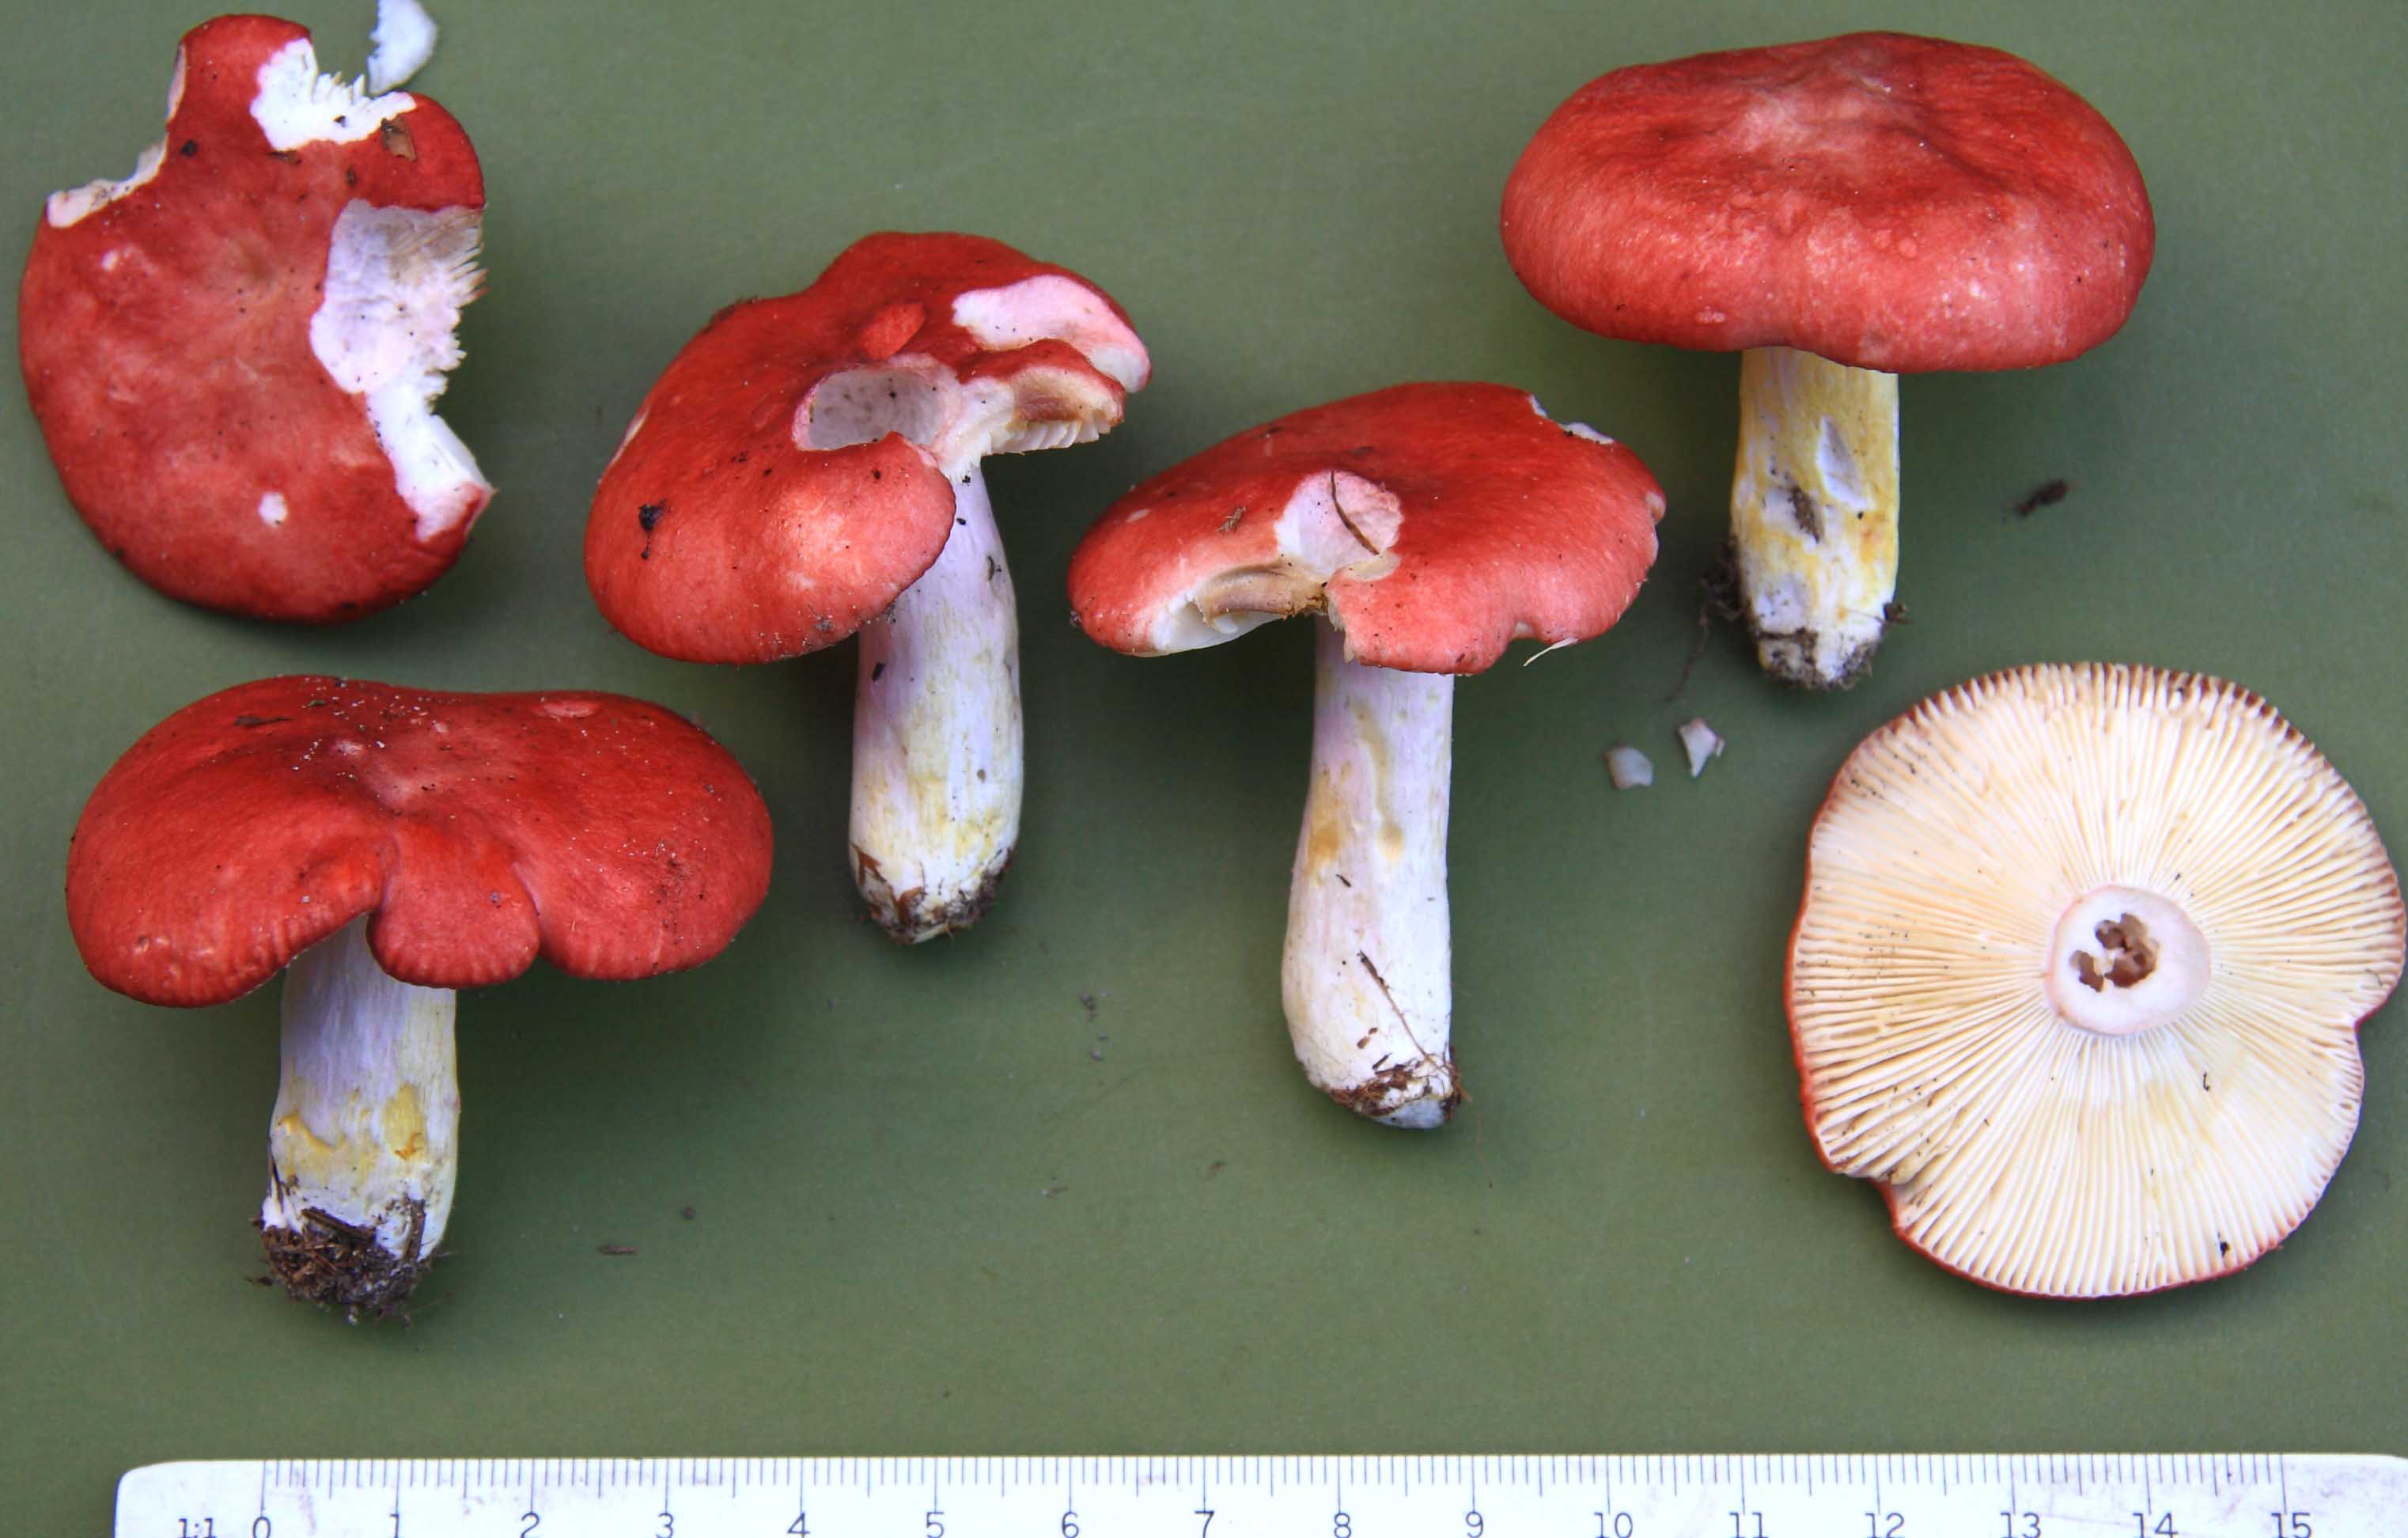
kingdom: Fungi
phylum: Basidiomycota
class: Agaricomycetes
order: Russulales
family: Russulaceae
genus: Russula
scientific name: Russula sanguinea
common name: blodrød skørhat
